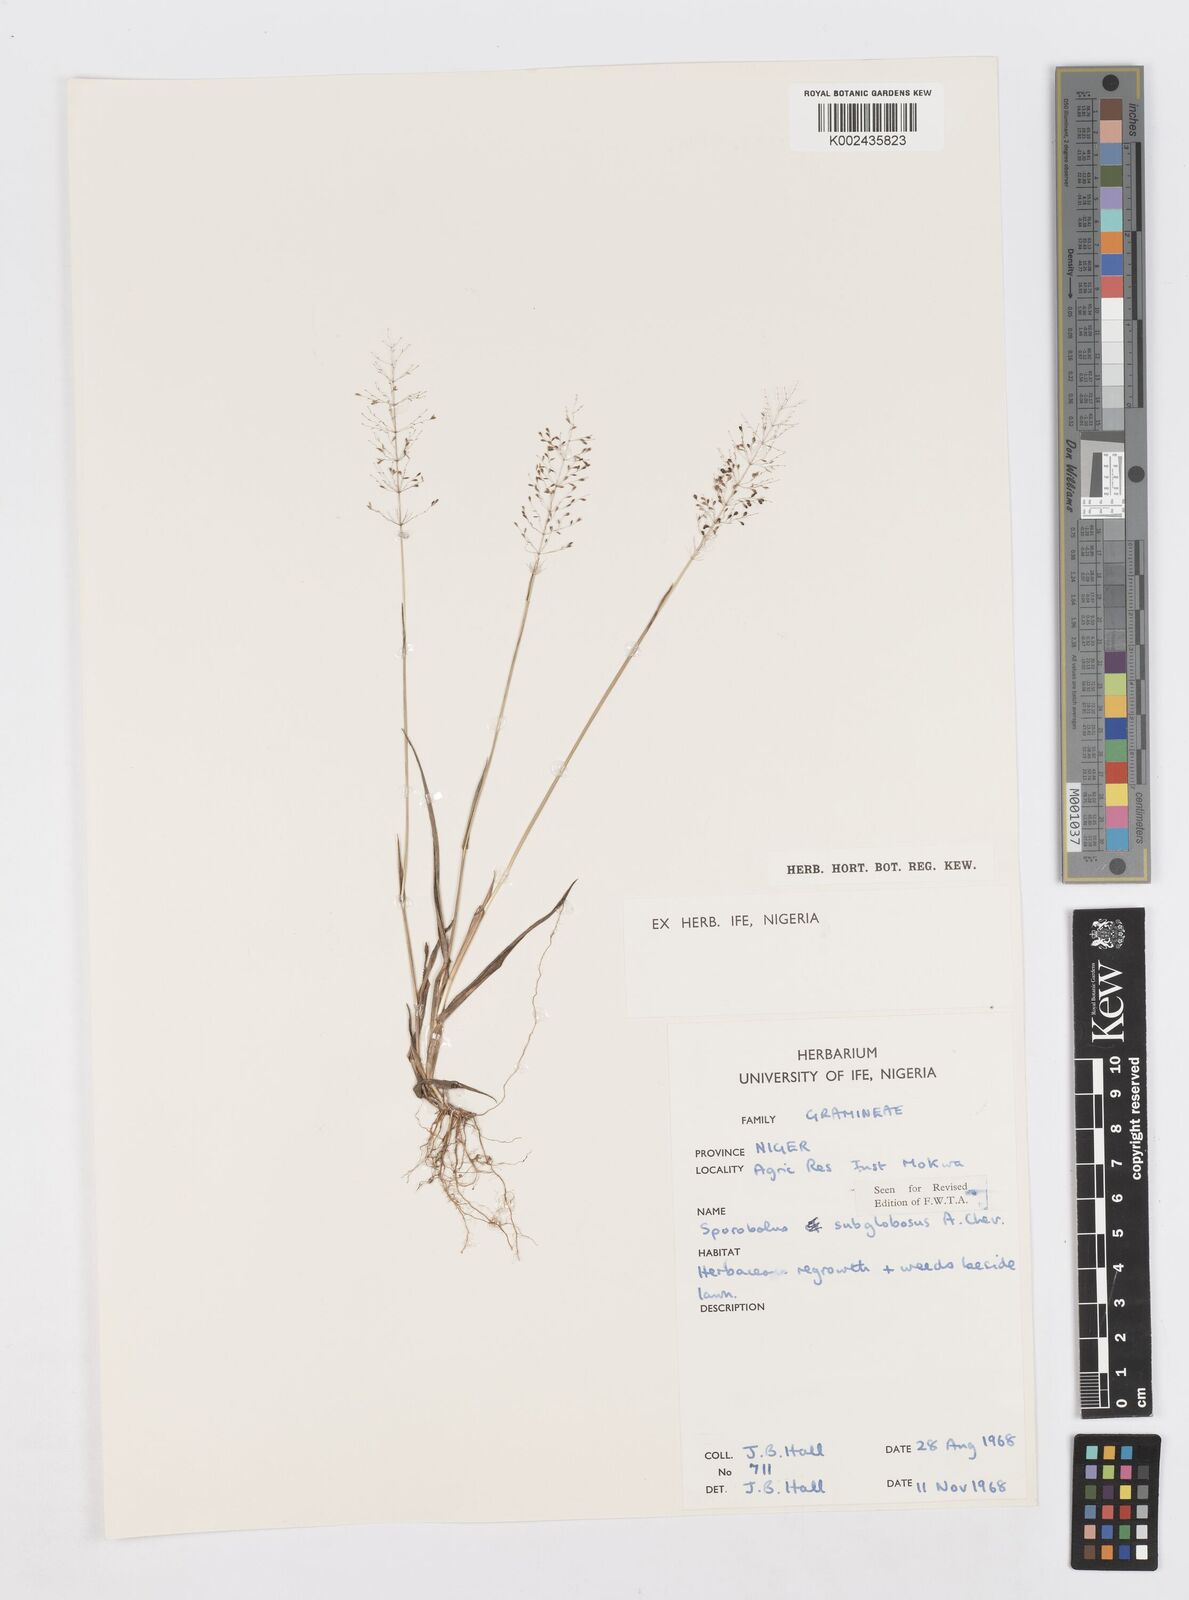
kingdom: Plantae
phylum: Tracheophyta
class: Liliopsida
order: Poales
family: Poaceae
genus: Sporobolus
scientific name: Sporobolus subglobosus
